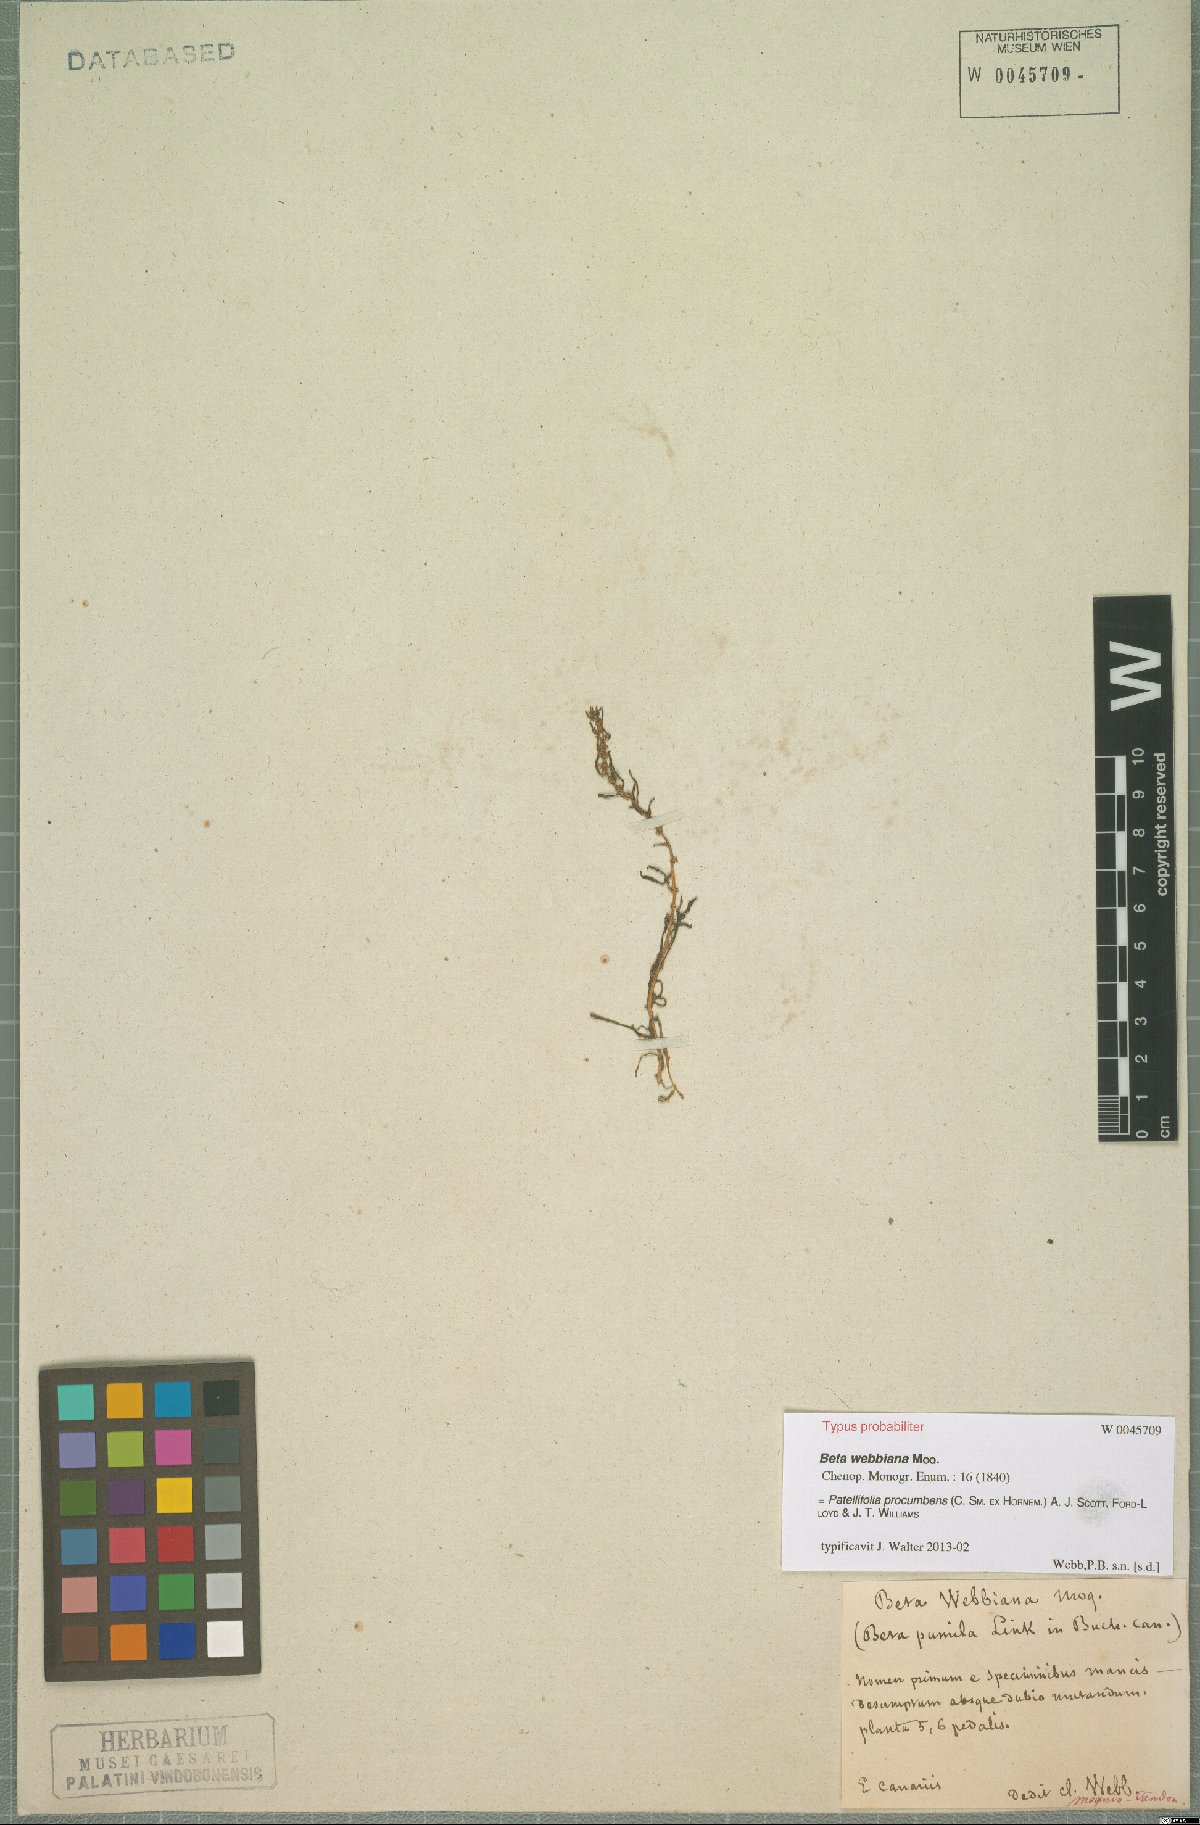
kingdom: Plantae
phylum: Tracheophyta
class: Magnoliopsida
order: Caryophyllales
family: Amaranthaceae
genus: Patellifolia
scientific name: Patellifolia procumbens
